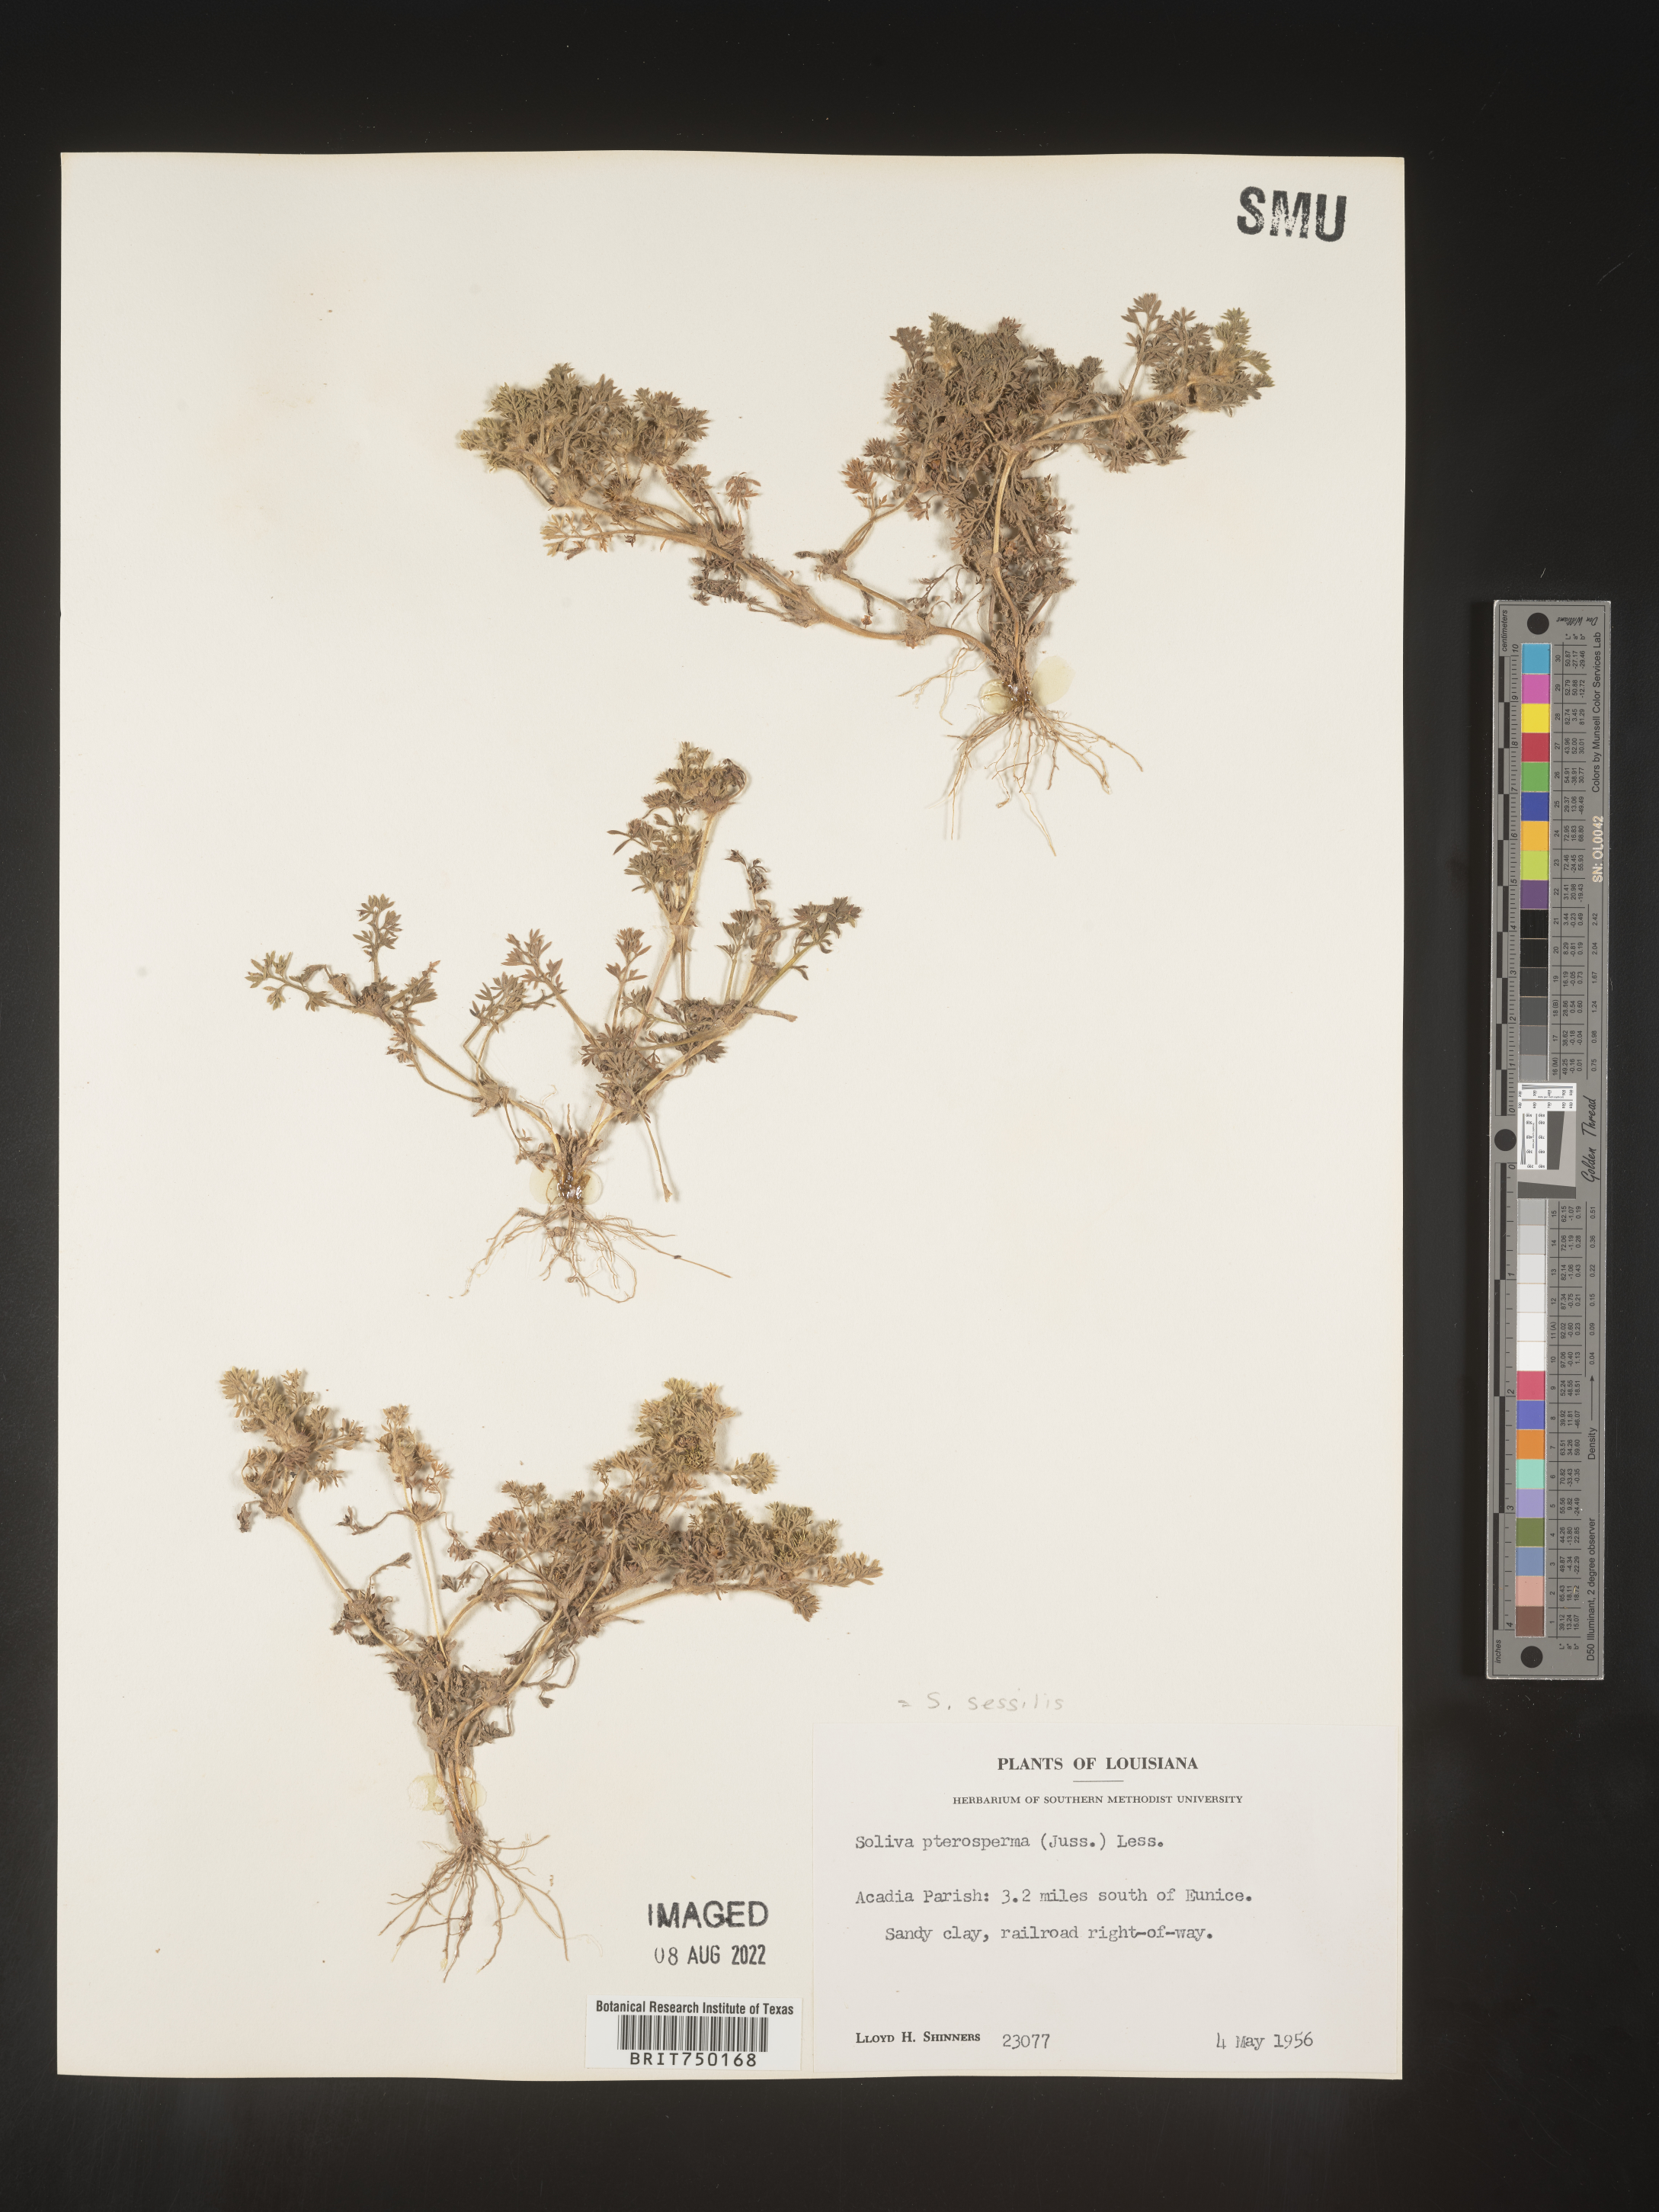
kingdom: Plantae
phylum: Tracheophyta
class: Magnoliopsida
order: Asterales
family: Asteraceae
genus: Soliva
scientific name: Soliva sessilis
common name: Field burrweed
